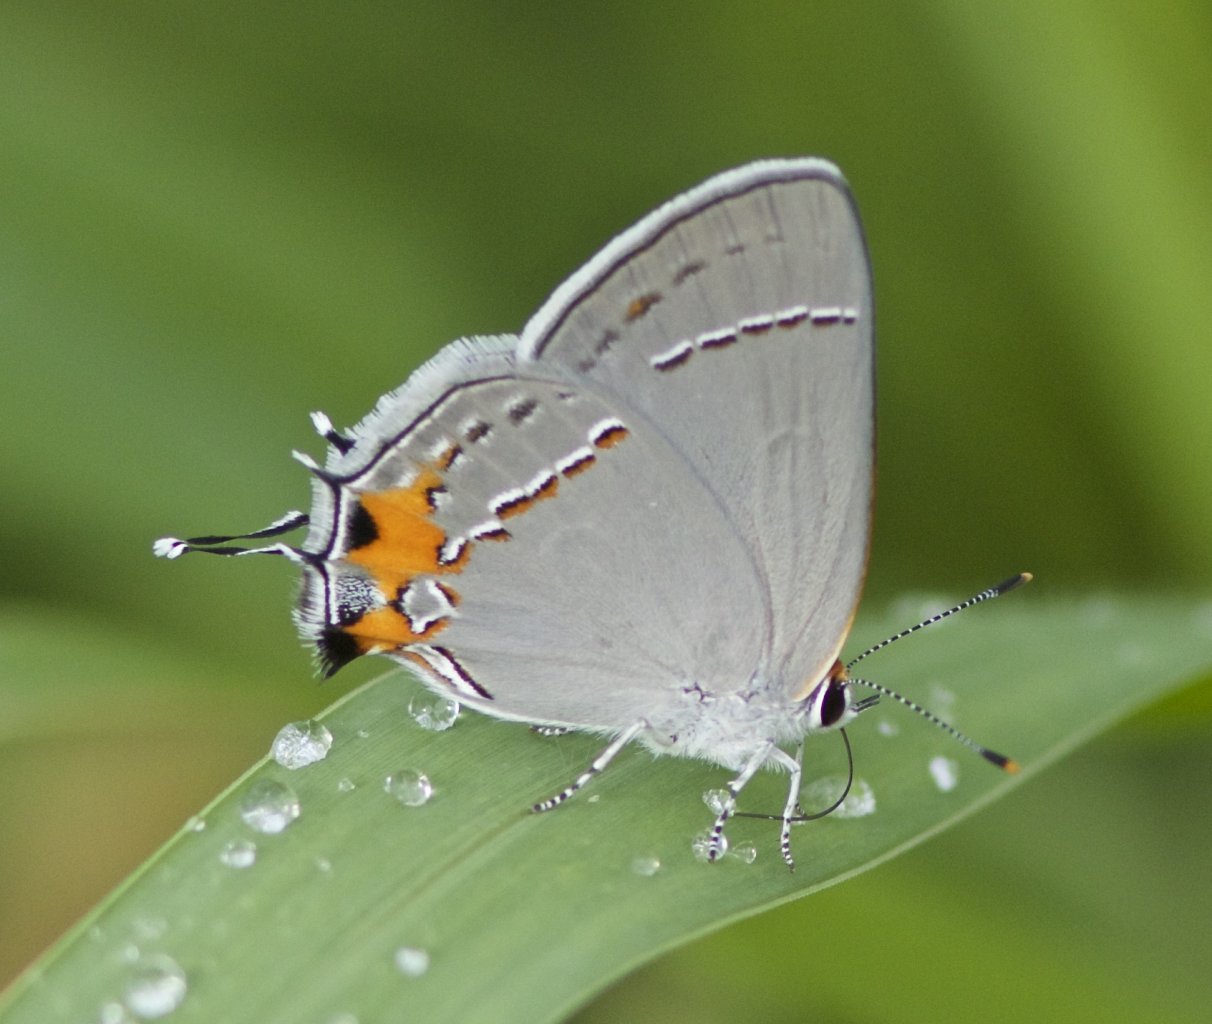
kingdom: Animalia
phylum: Arthropoda
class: Insecta
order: Lepidoptera
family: Lycaenidae
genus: Strymon
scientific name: Strymon melinus
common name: Gray Hairstreak
